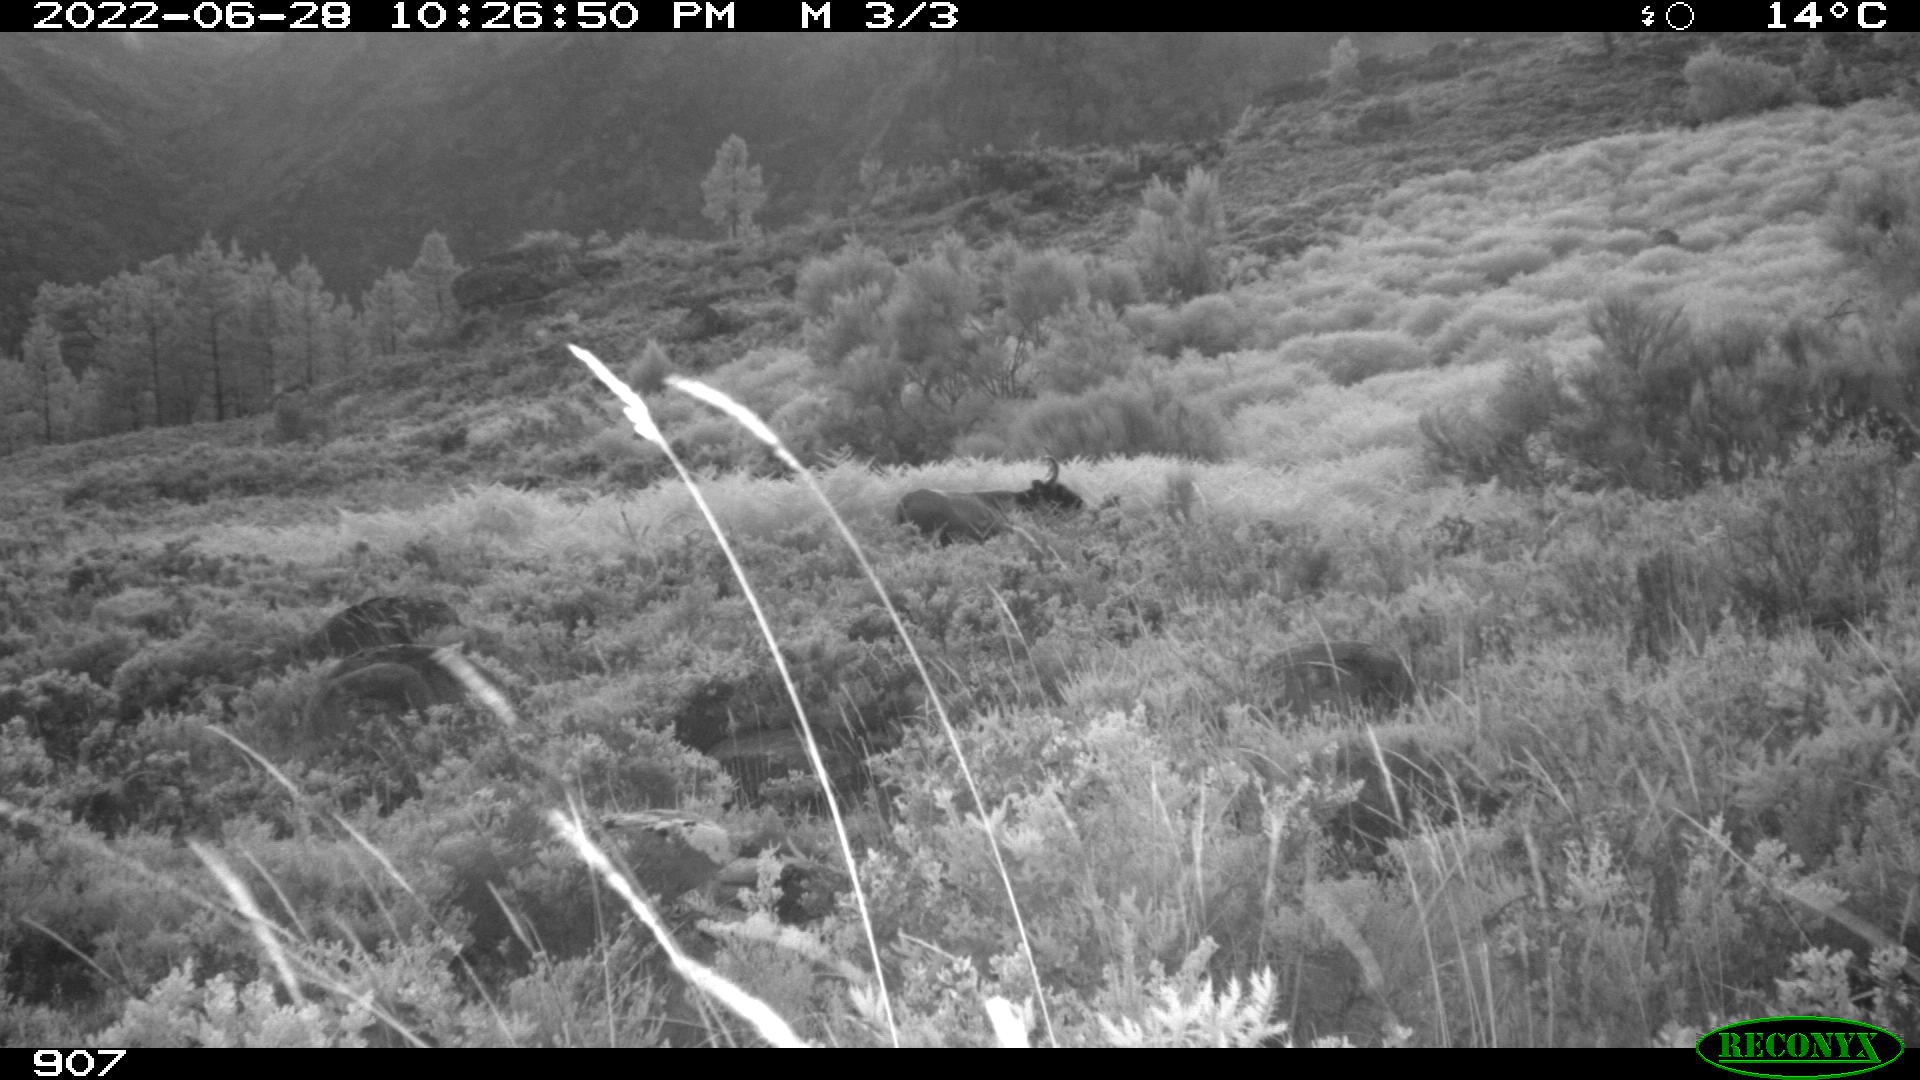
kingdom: Animalia
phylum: Chordata
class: Mammalia
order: Artiodactyla
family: Bovidae
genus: Bos
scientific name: Bos taurus
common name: Domesticated cattle
